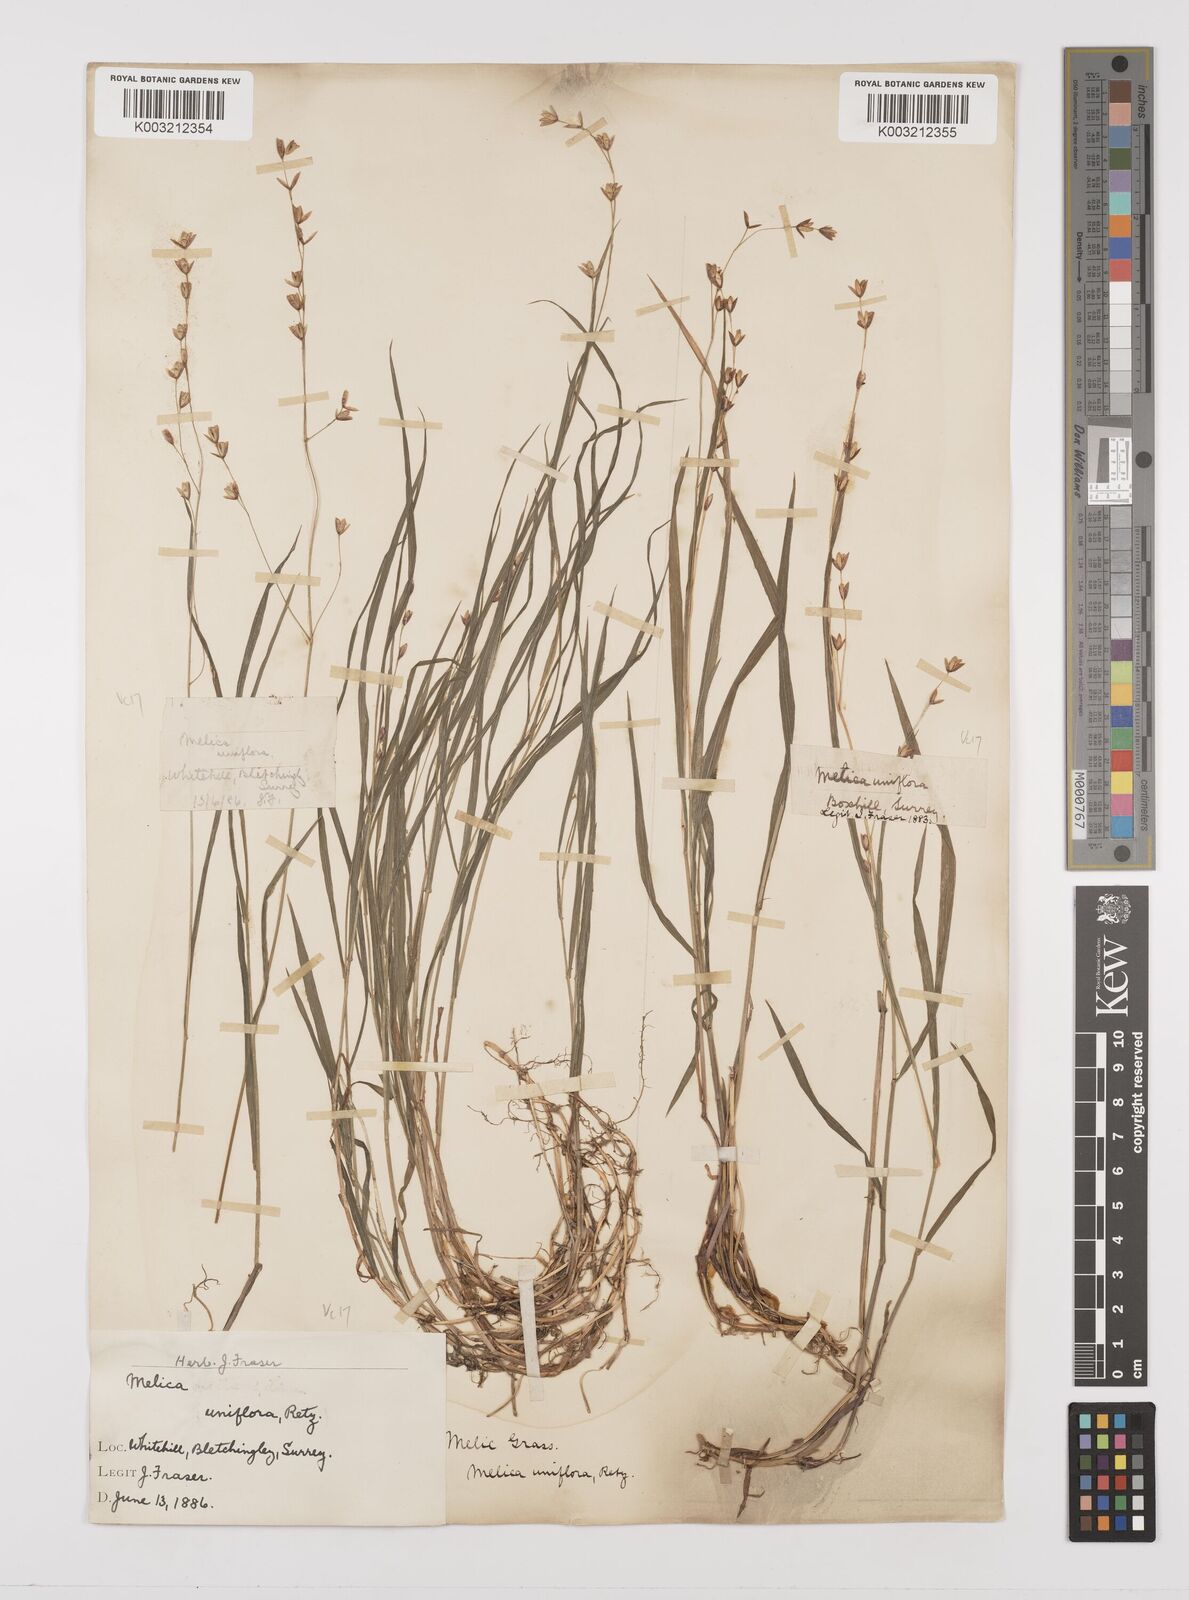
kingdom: Plantae
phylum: Tracheophyta
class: Liliopsida
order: Poales
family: Poaceae
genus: Melica
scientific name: Melica uniflora
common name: Wood melick
